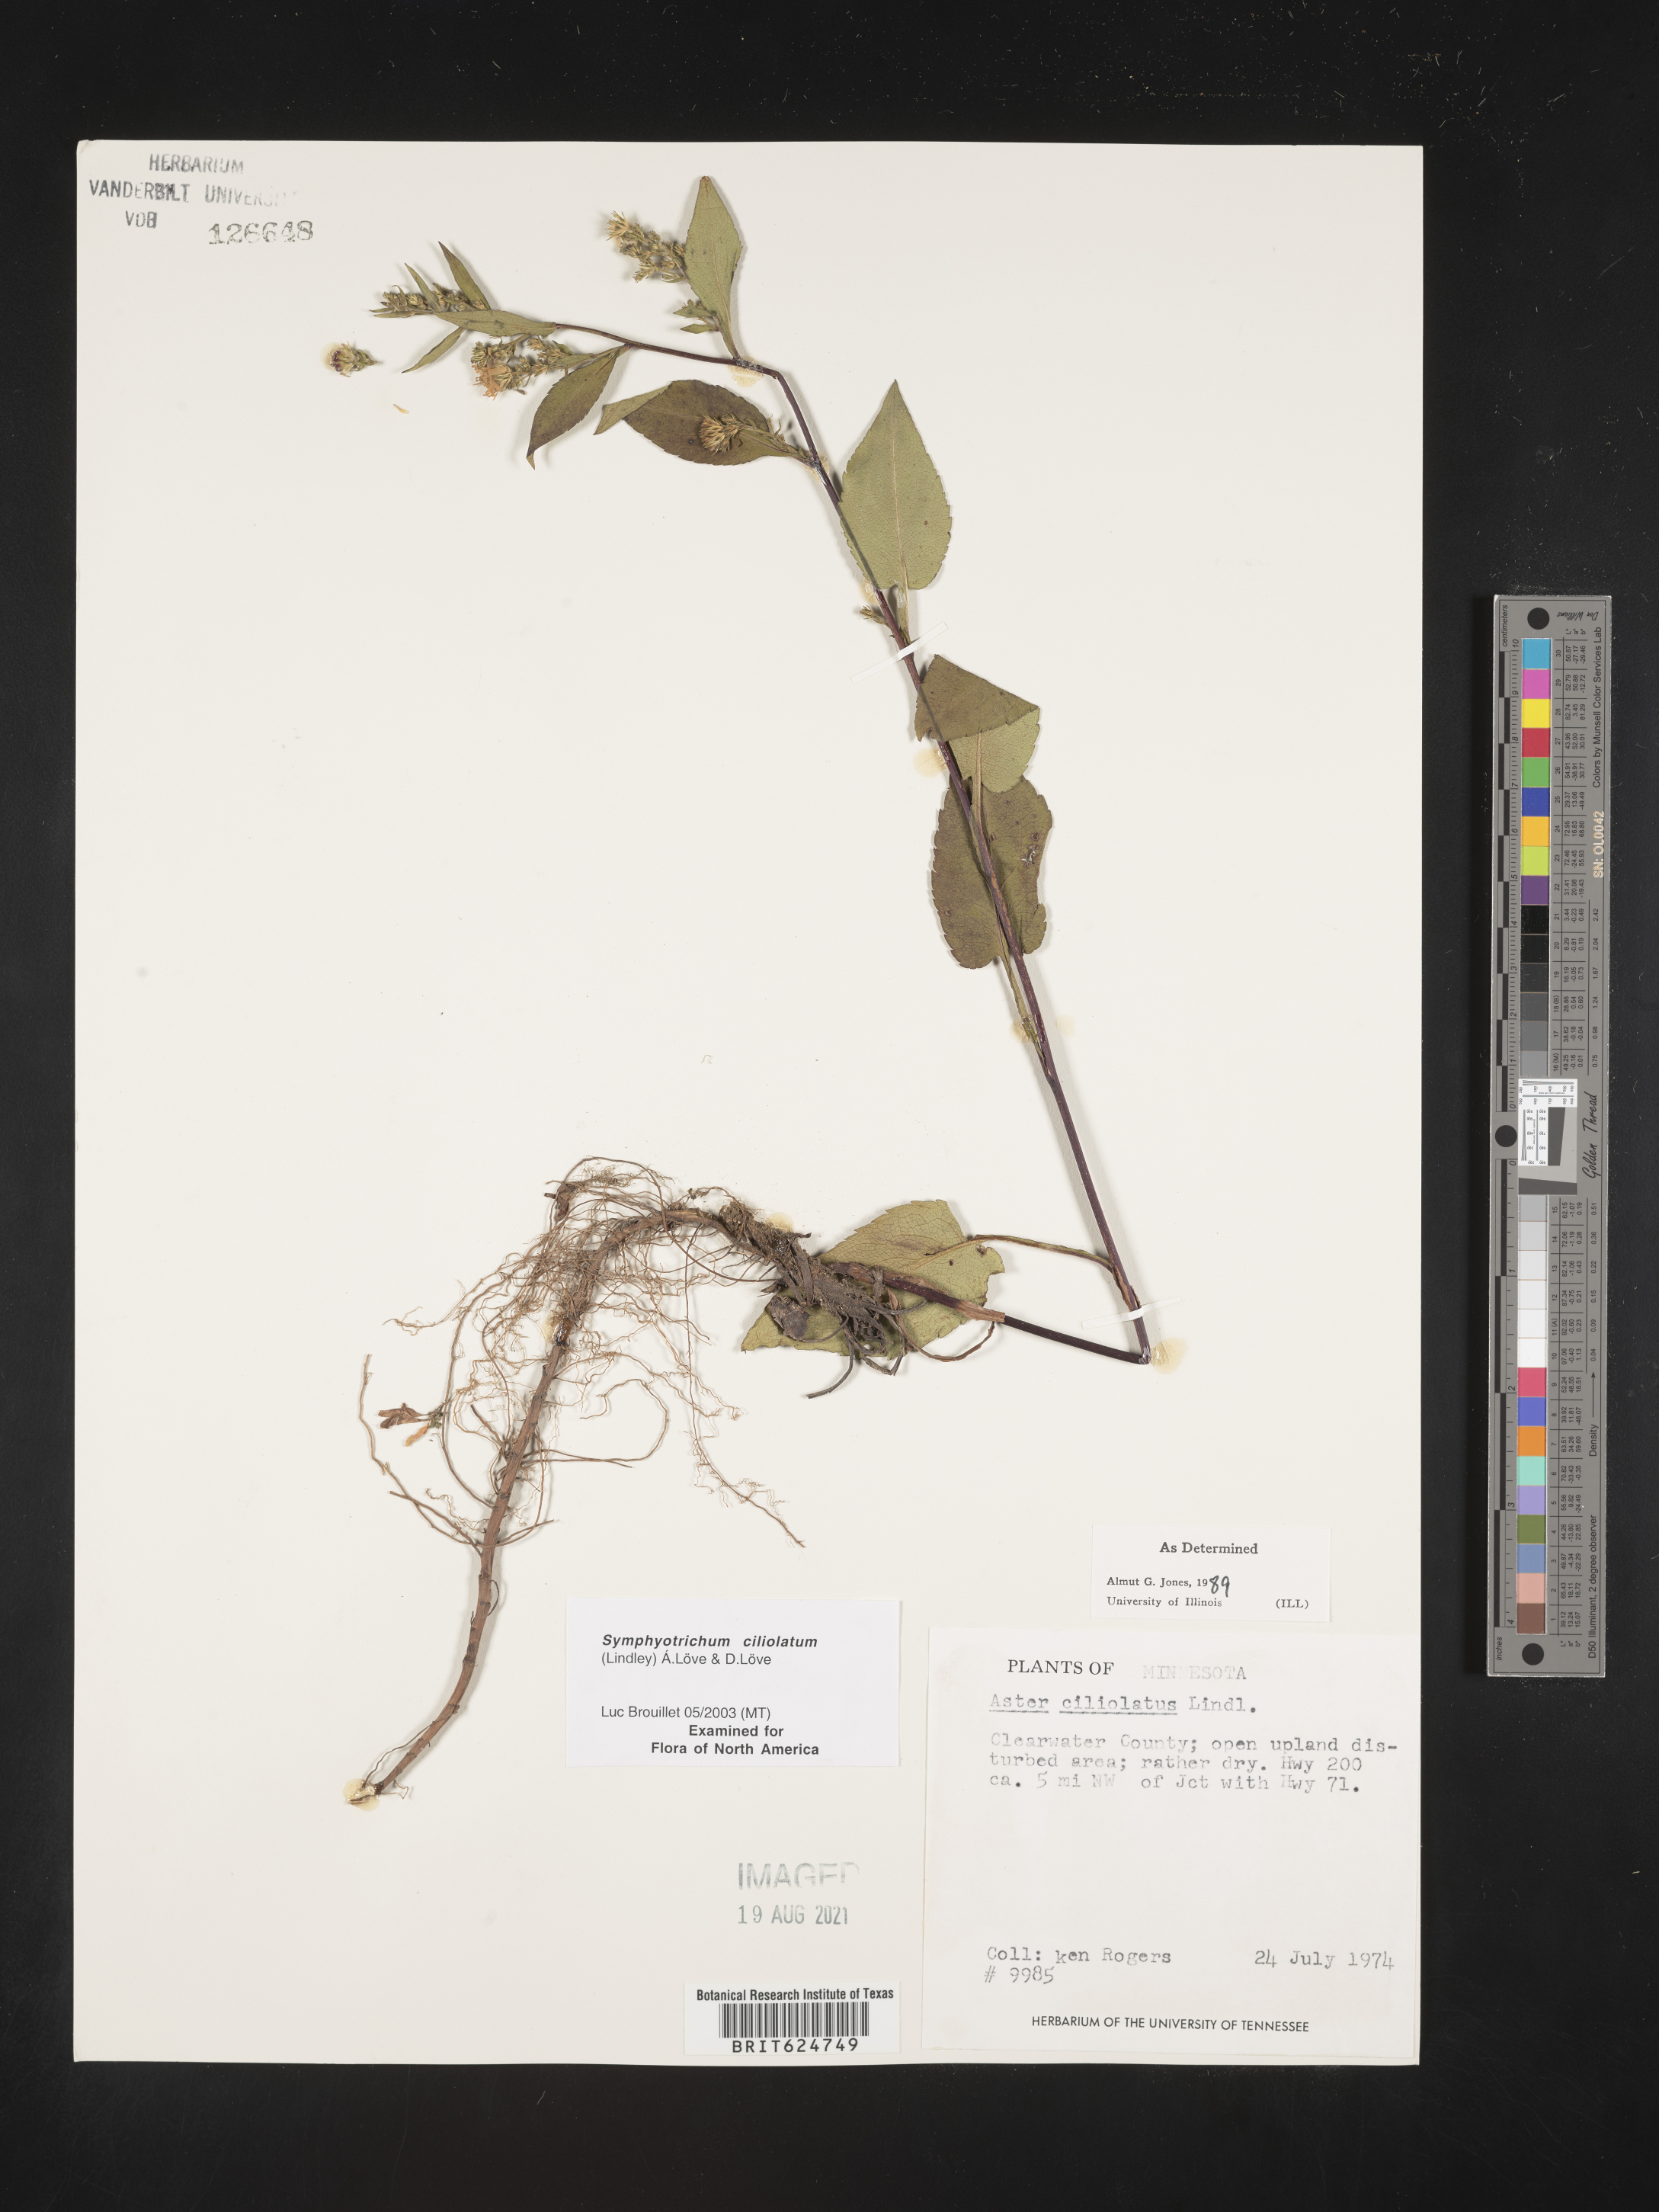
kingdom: Plantae
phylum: Tracheophyta
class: Magnoliopsida
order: Asterales
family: Asteraceae
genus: Symphyotrichum
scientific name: Symphyotrichum ciliolatum
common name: Fringed blue aster
